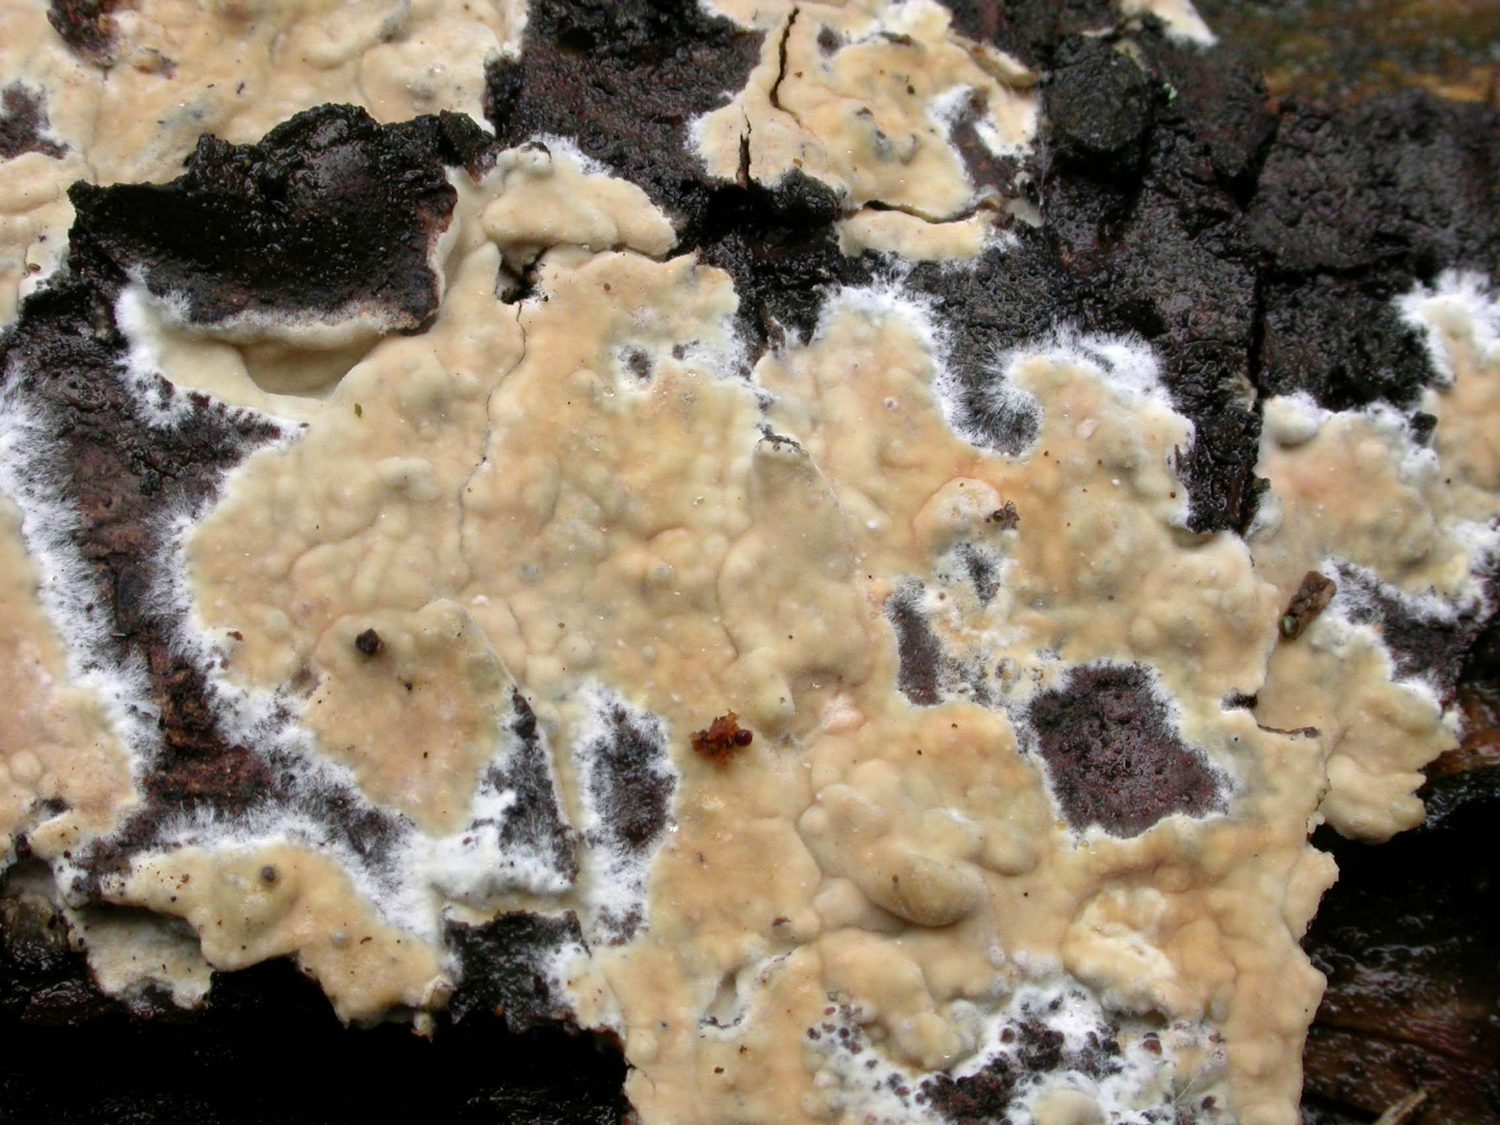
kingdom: Fungi
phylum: Basidiomycota
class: Agaricomycetes
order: Polyporales
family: Phanerochaetaceae
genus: Phanerochaete
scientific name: Phanerochaete velutina
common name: dunet randtråd
